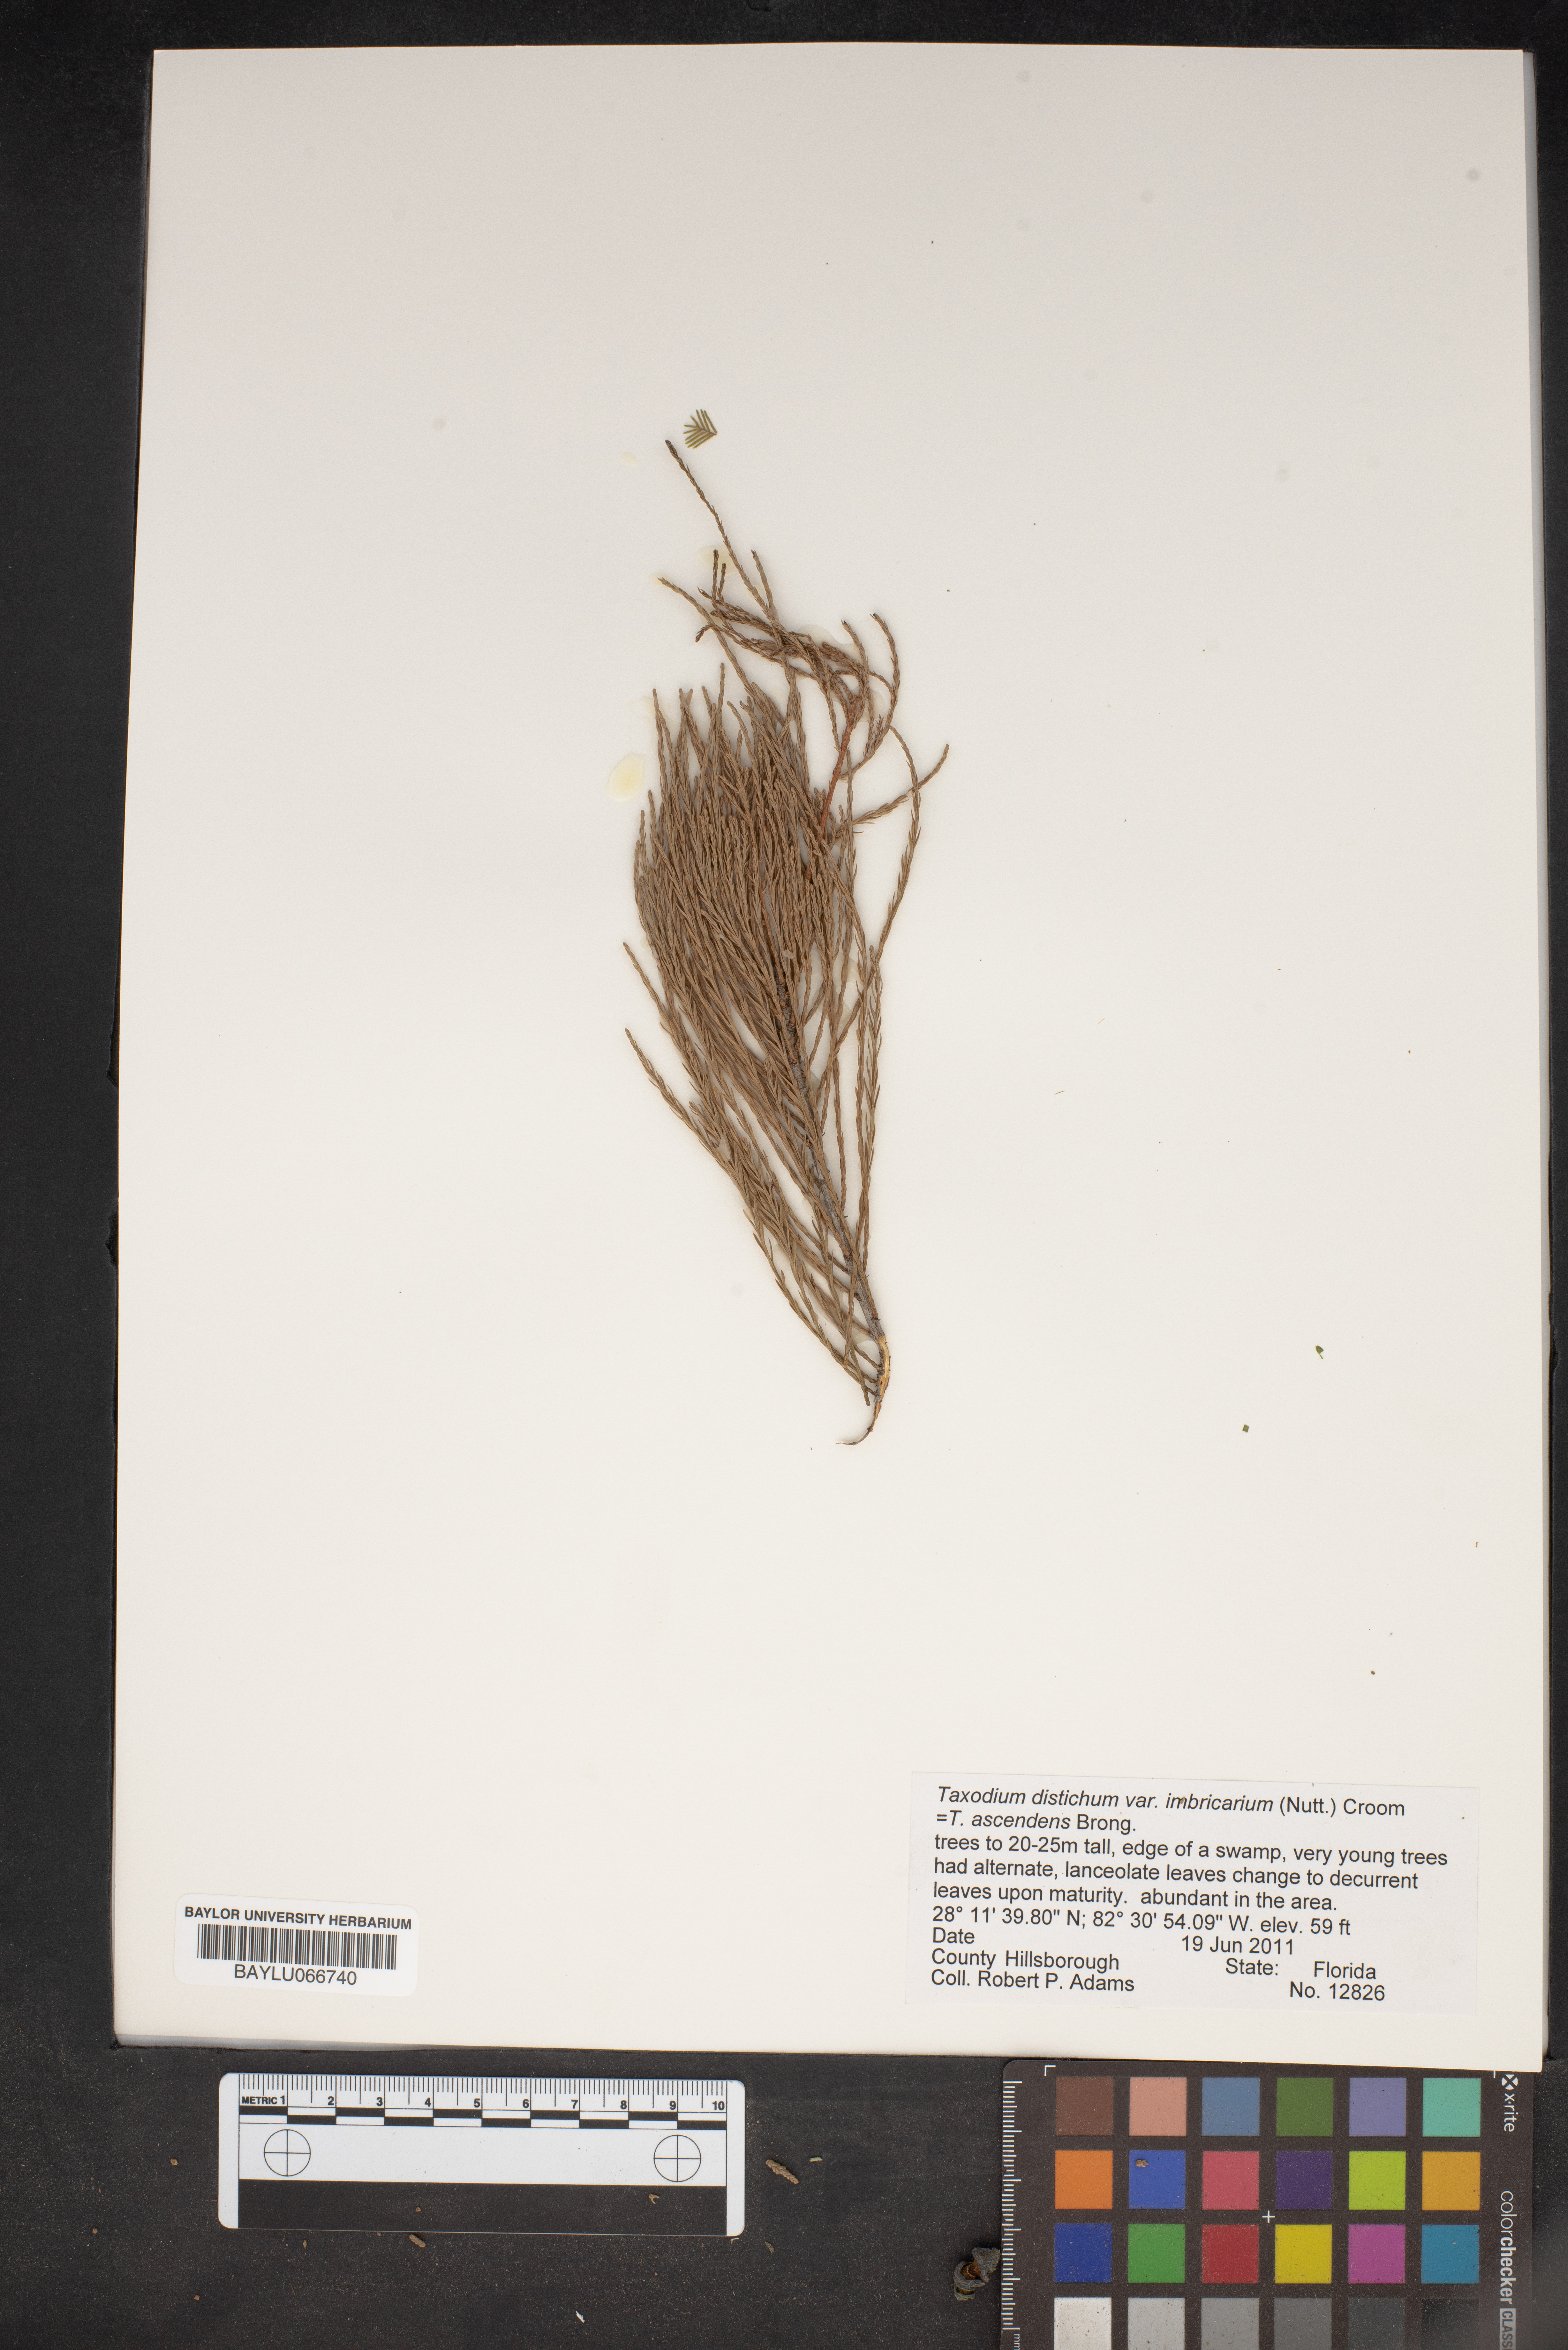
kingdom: Plantae
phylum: Tracheophyta
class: Pinopsida
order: Pinales
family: Cupressaceae
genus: Taxodium
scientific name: Taxodium distichum
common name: Bald cypress
